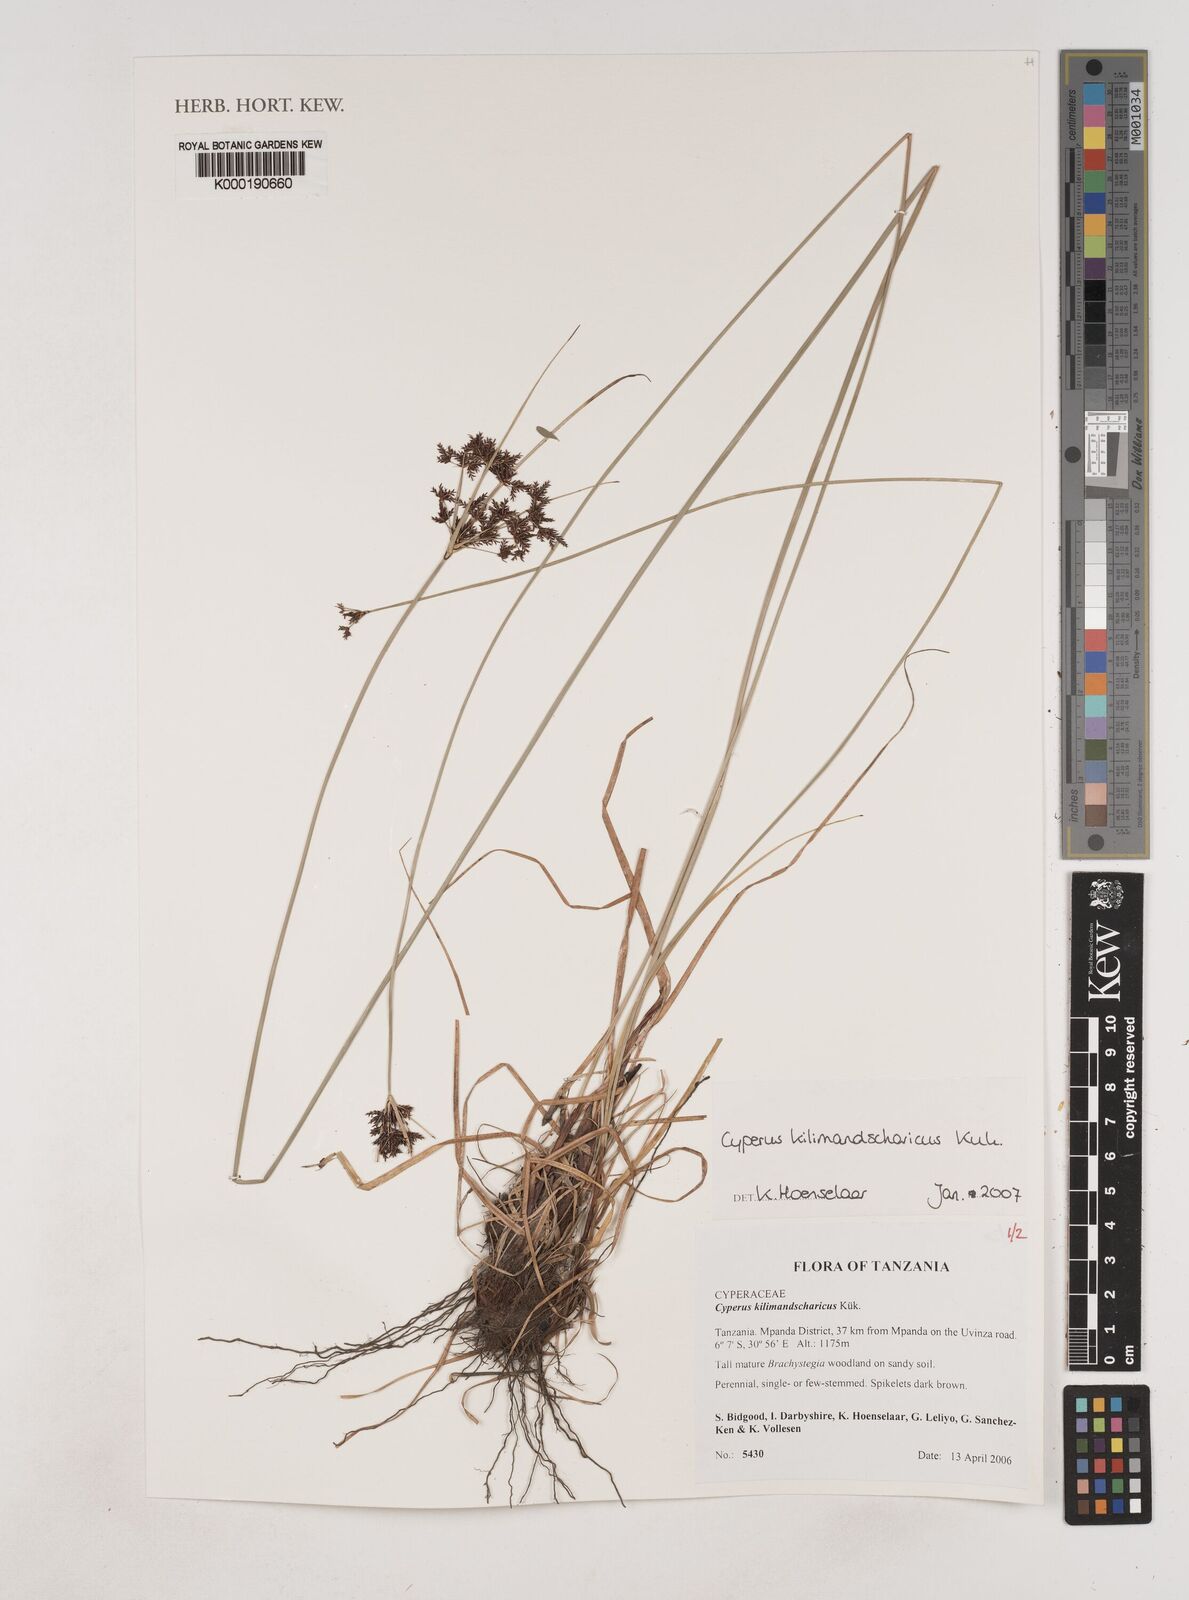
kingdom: Plantae
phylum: Tracheophyta
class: Liliopsida
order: Poales
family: Cyperaceae
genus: Cyperus
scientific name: Cyperus
